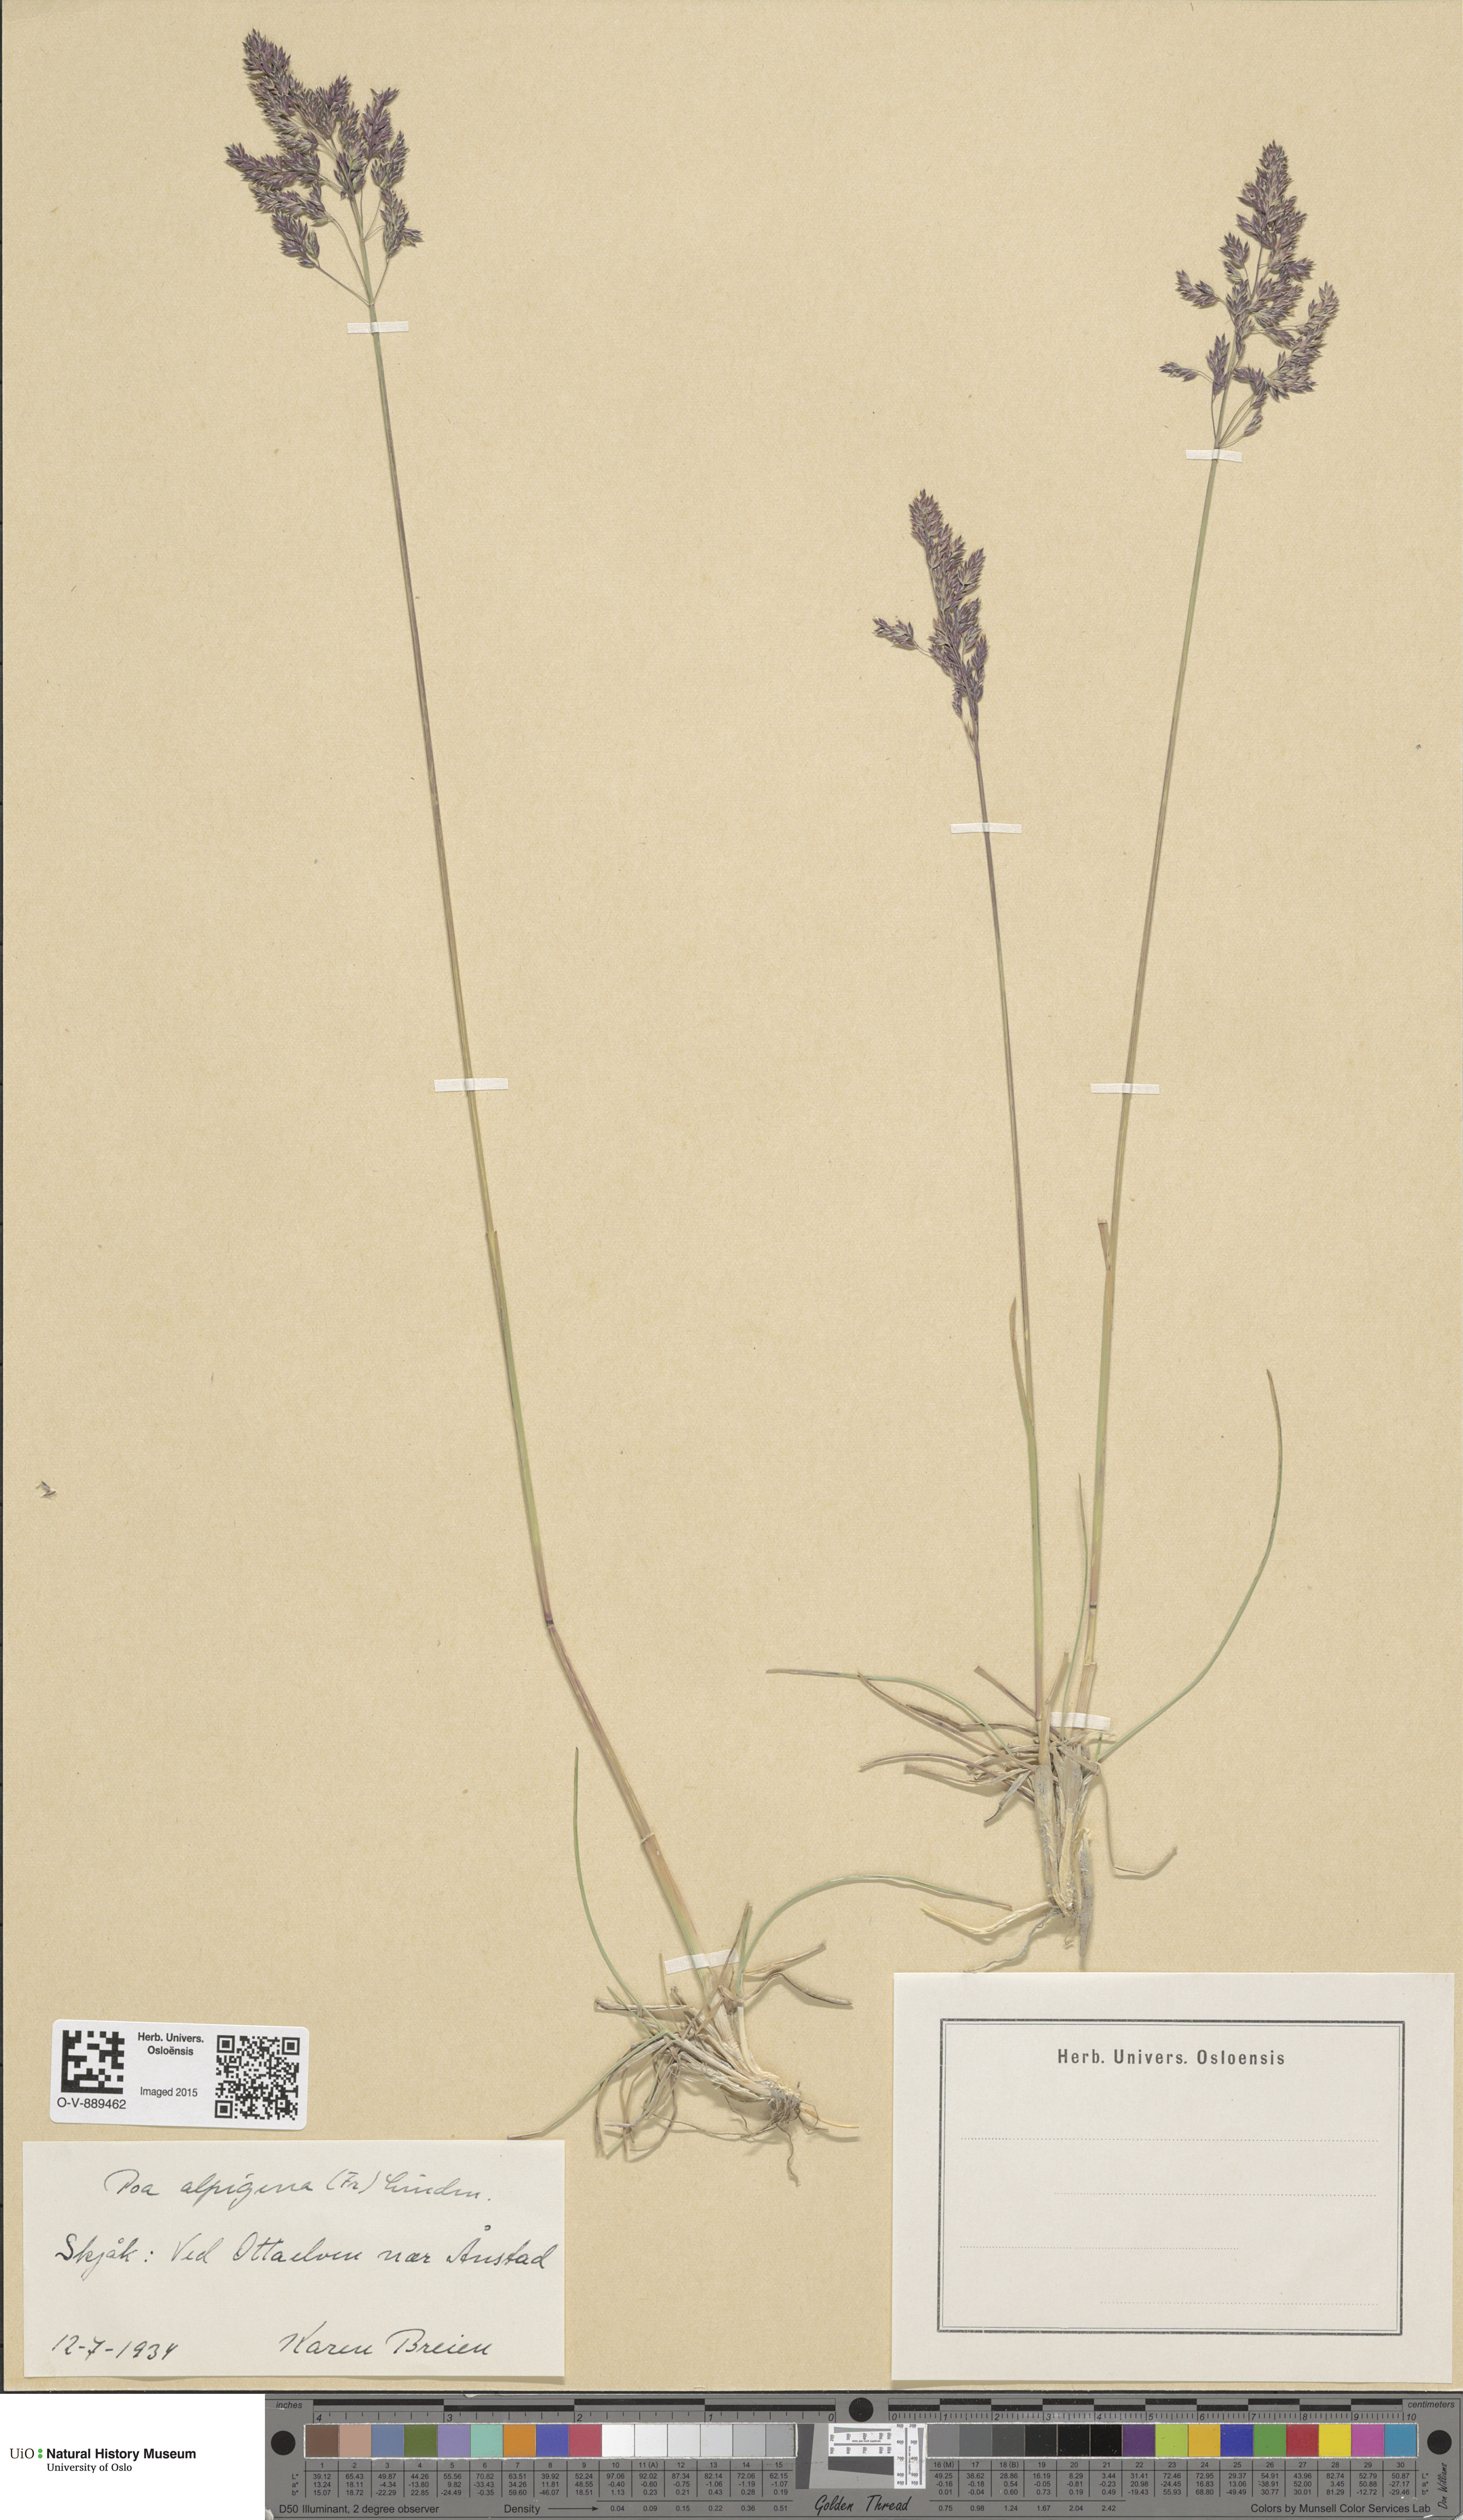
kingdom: Plantae
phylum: Tracheophyta
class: Liliopsida
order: Poales
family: Poaceae
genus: Poa
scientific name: Poa alpigena
